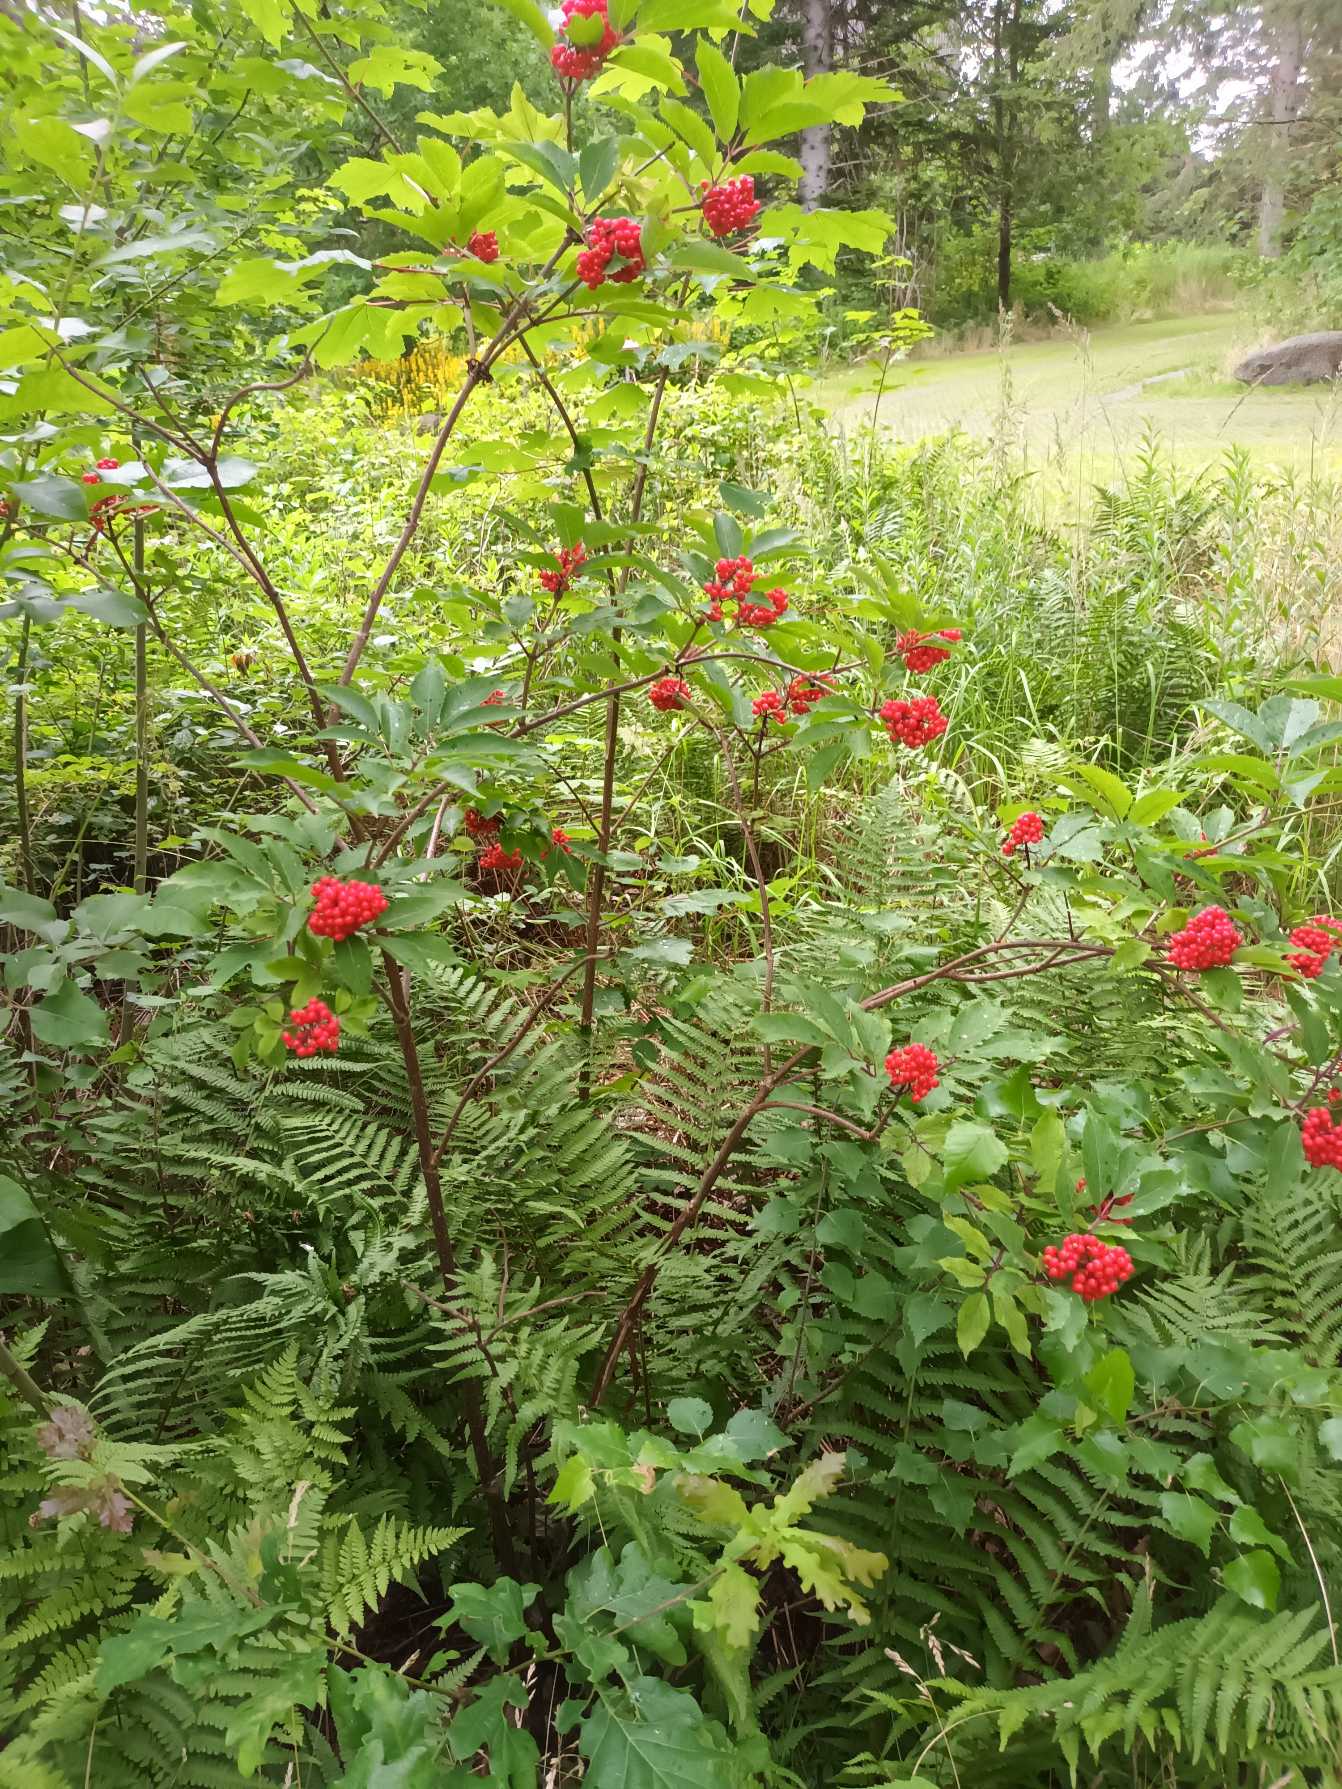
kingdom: Plantae
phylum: Tracheophyta
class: Magnoliopsida
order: Dipsacales
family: Viburnaceae
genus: Sambucus
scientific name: Sambucus racemosa
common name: Drue-hyld
